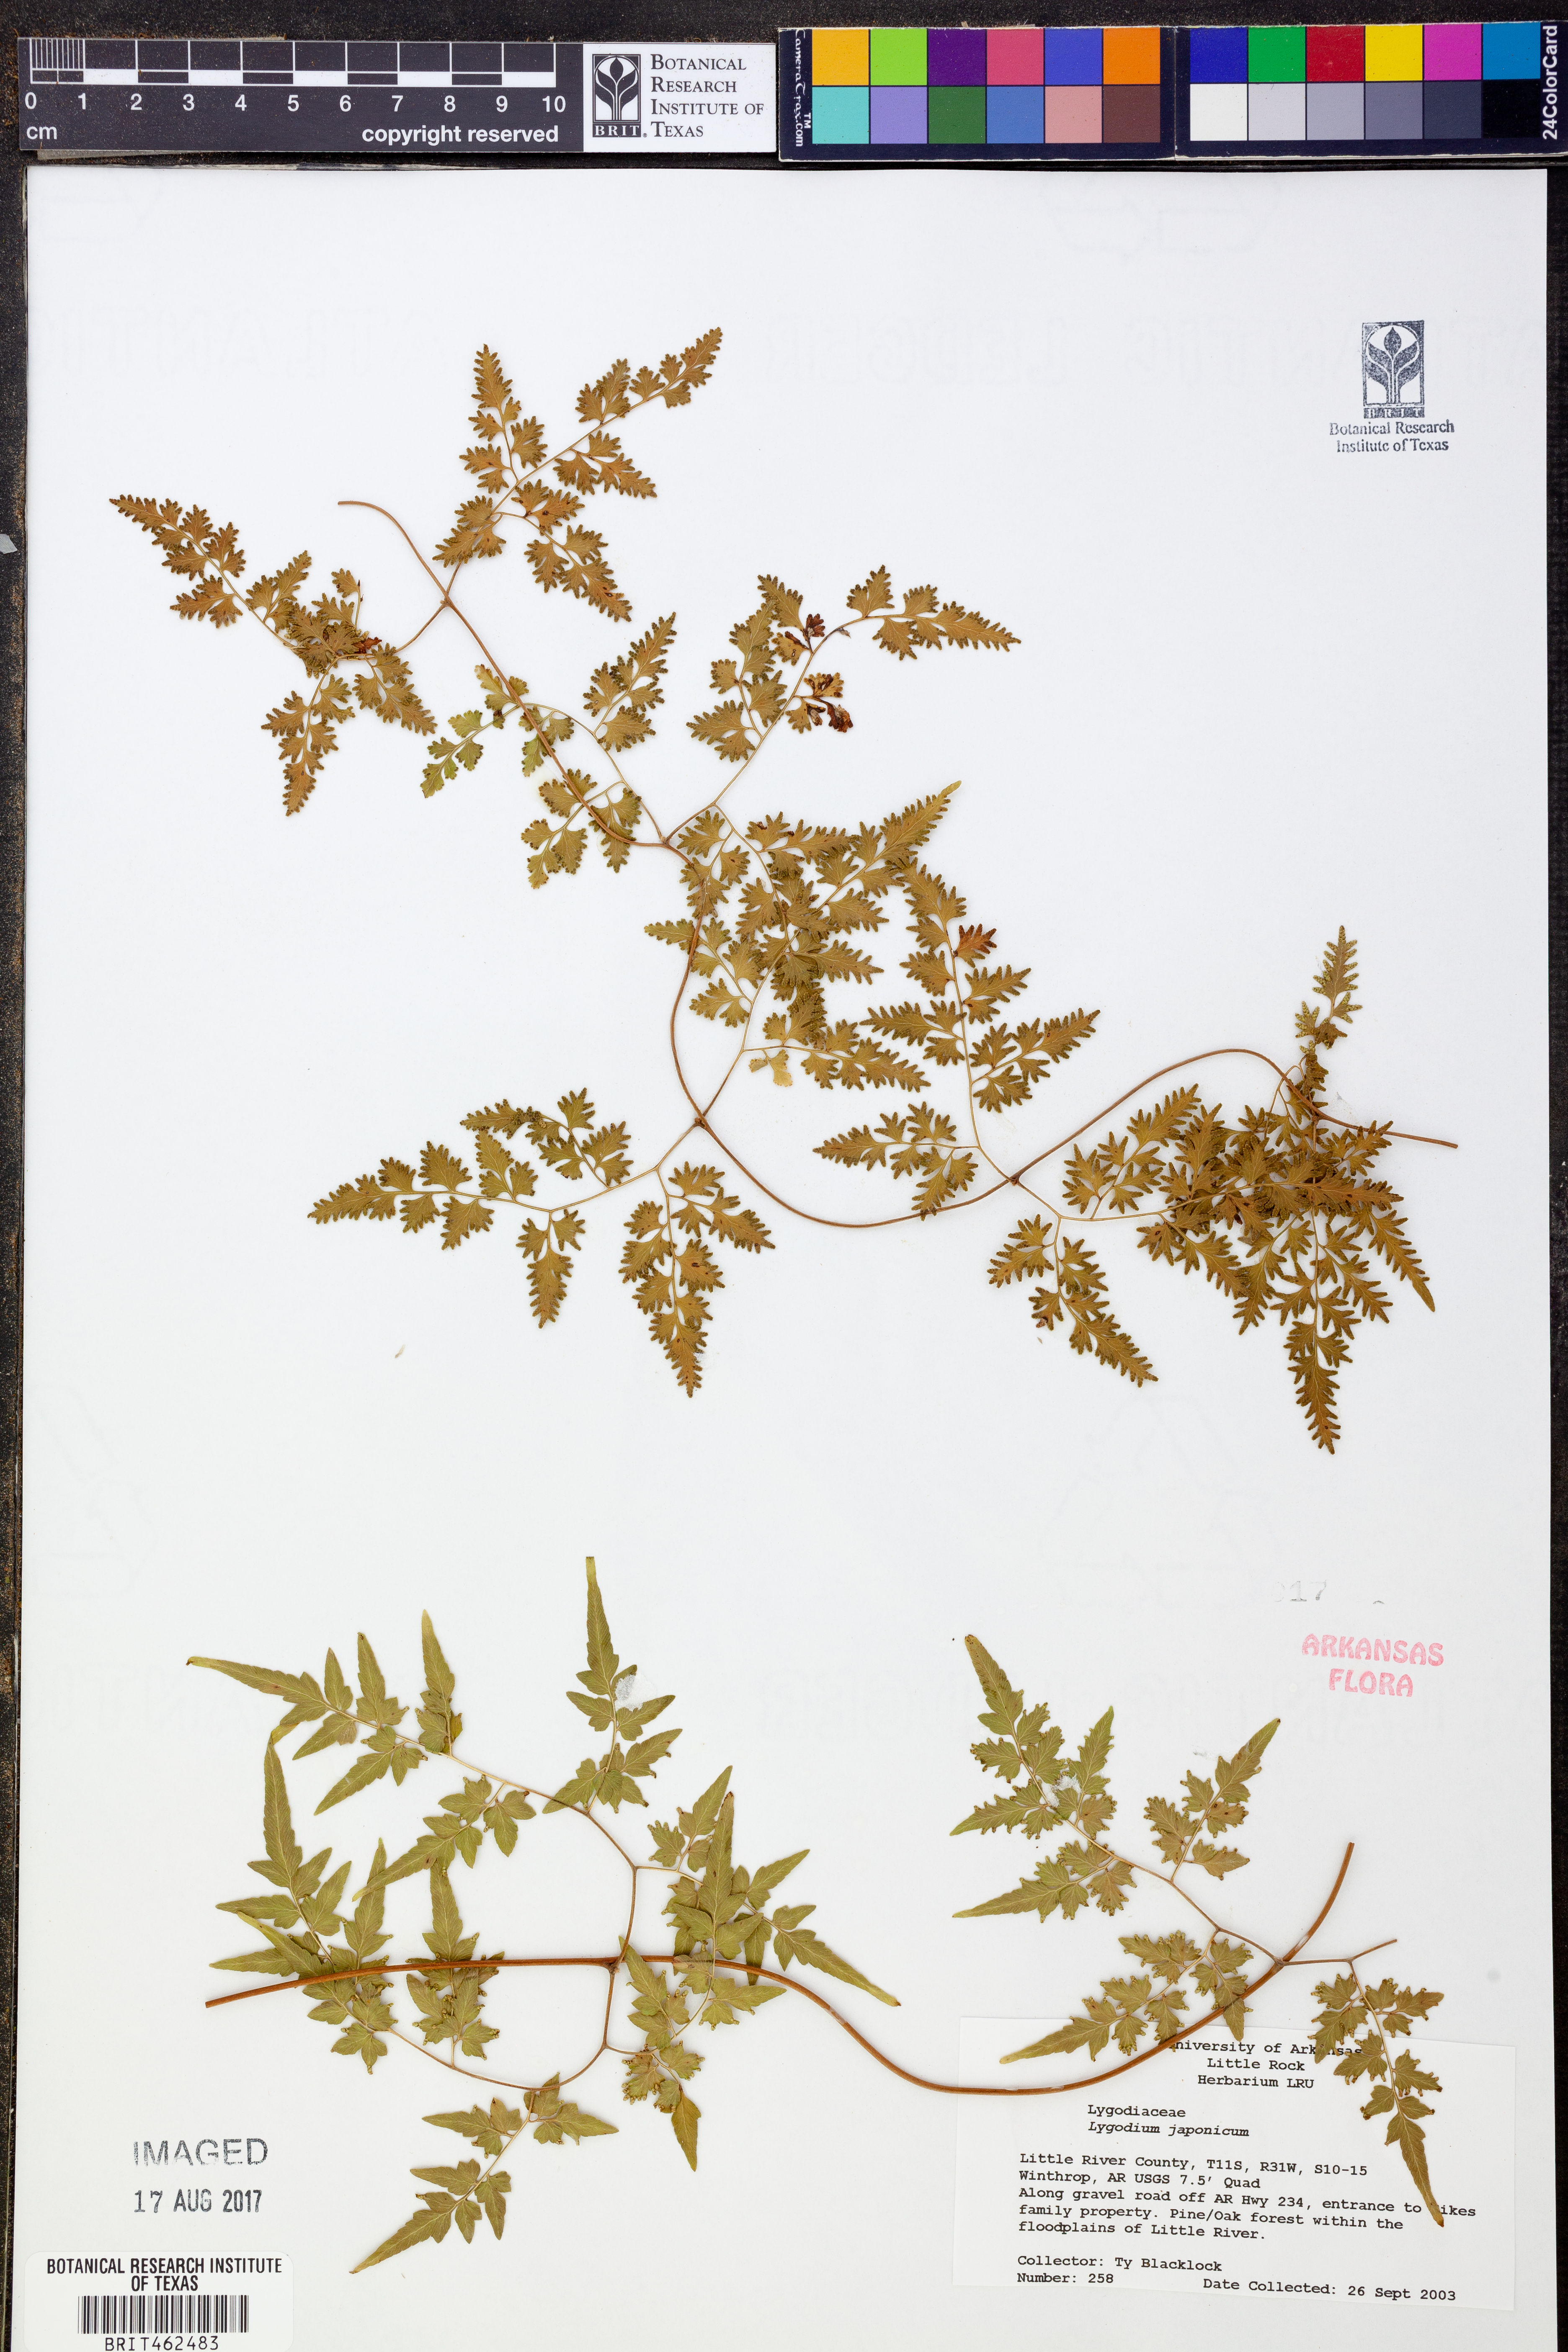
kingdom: Plantae
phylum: Tracheophyta
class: Polypodiopsida
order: Schizaeales
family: Lygodiaceae
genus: Lygodium
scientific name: Lygodium japonicum
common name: Japanese climbing fern
